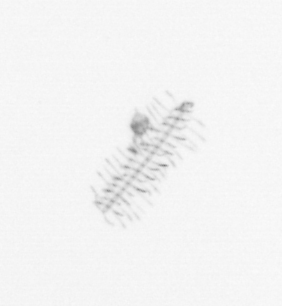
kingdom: Chromista
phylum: Ochrophyta
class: Bacillariophyceae
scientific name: Bacillariophyceae
